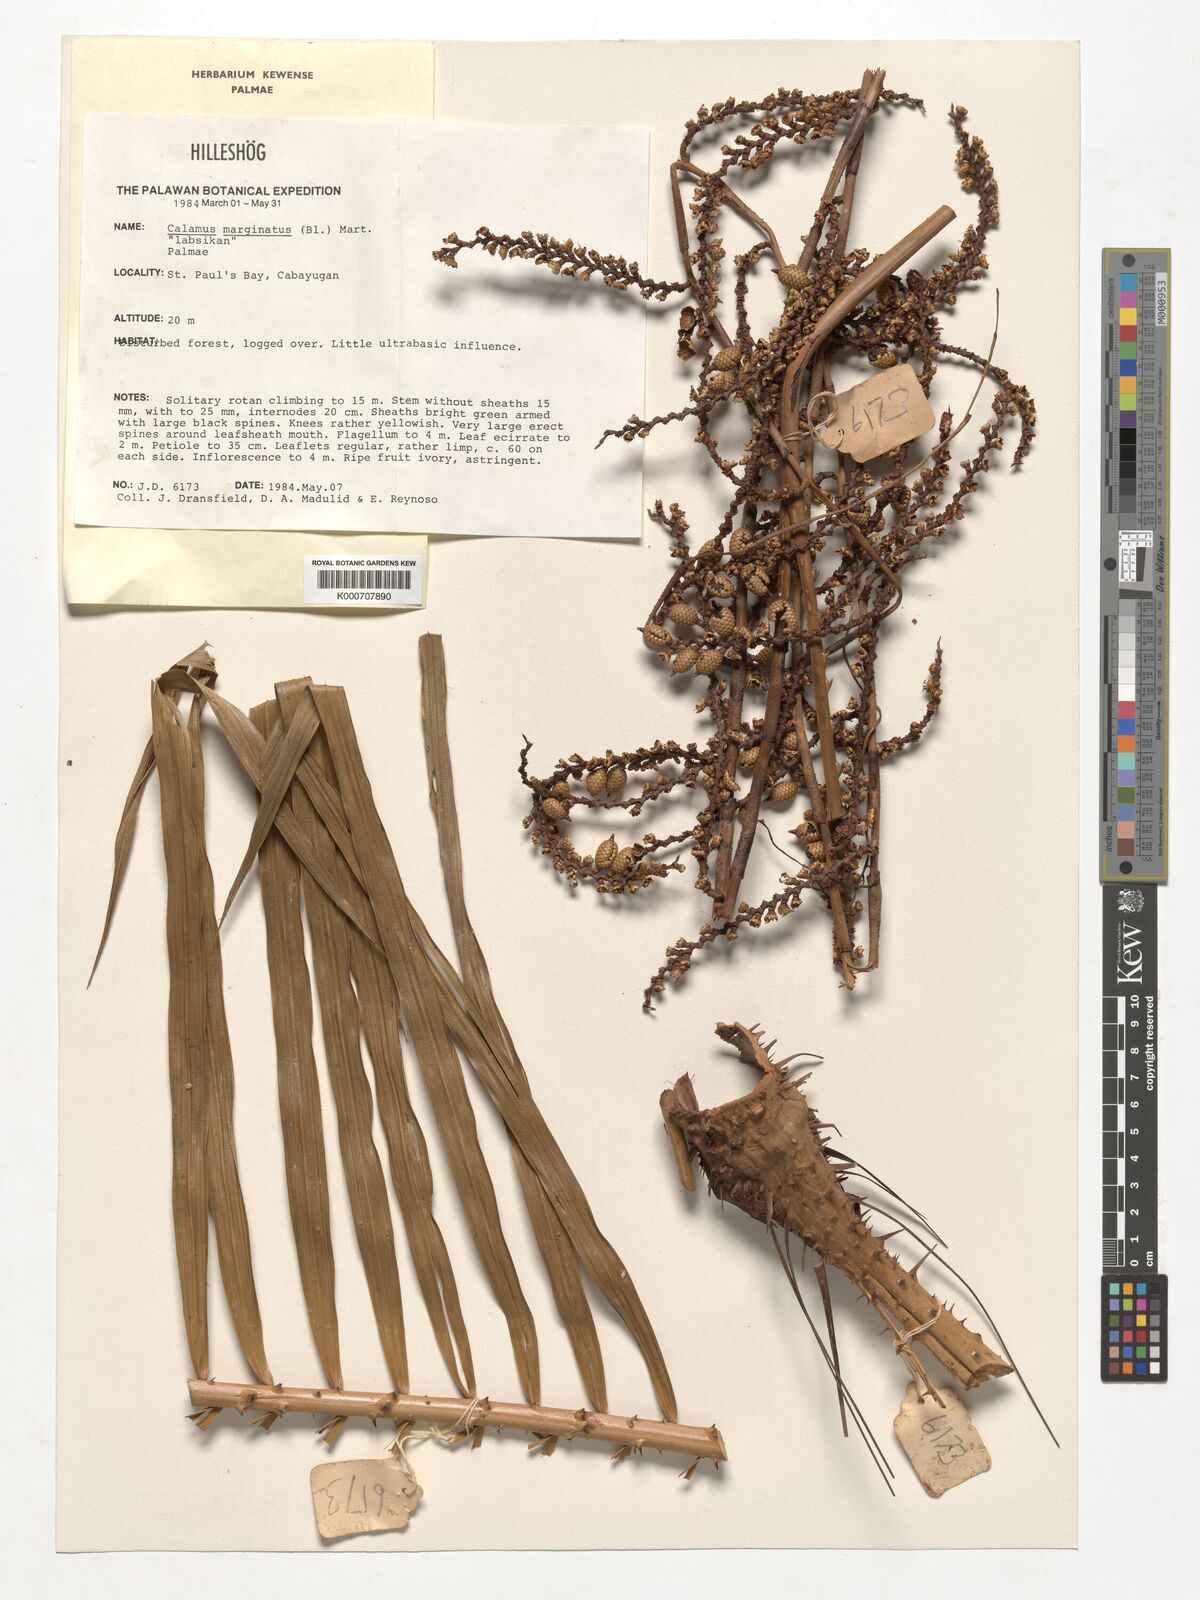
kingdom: Plantae
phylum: Tracheophyta
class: Liliopsida
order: Arecales
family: Arecaceae
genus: Calamus
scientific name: Calamus marginatus
